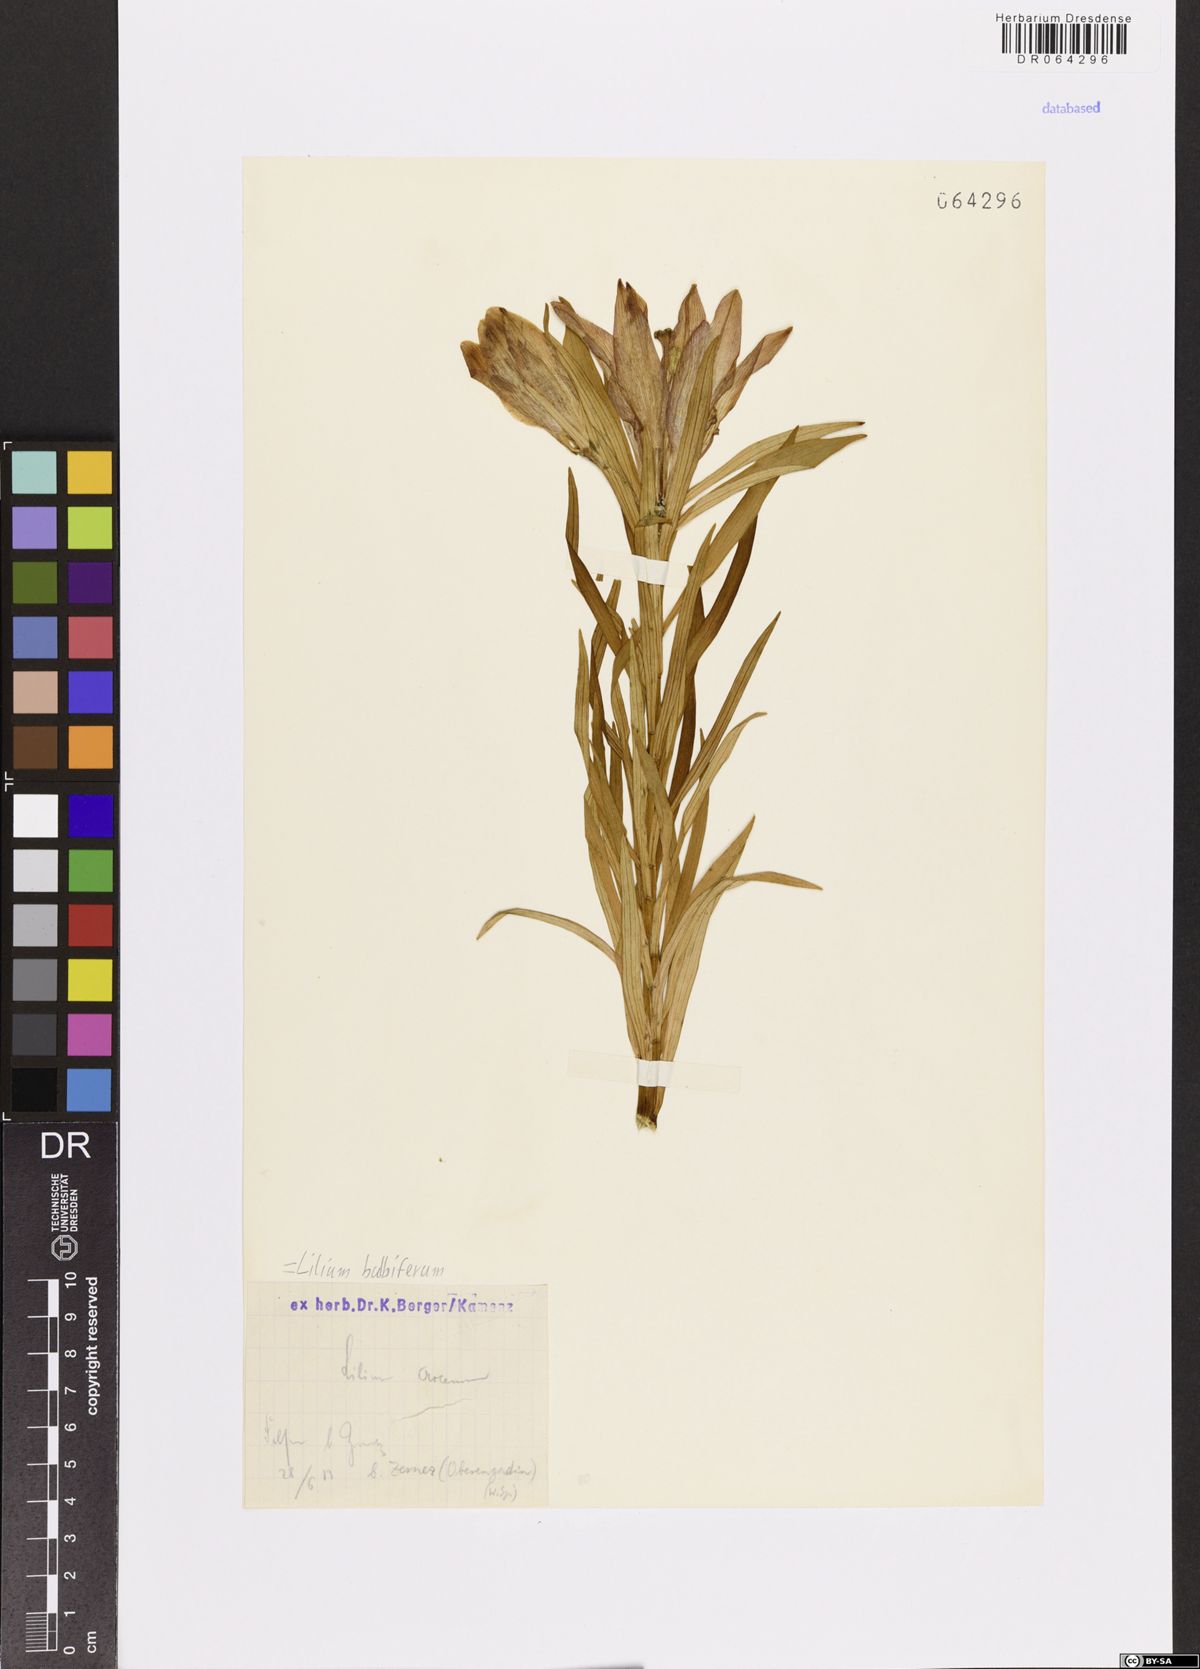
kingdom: Plantae
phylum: Tracheophyta
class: Liliopsida
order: Liliales
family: Liliaceae
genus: Lilium
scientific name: Lilium bulbiferum
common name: Orange lily
